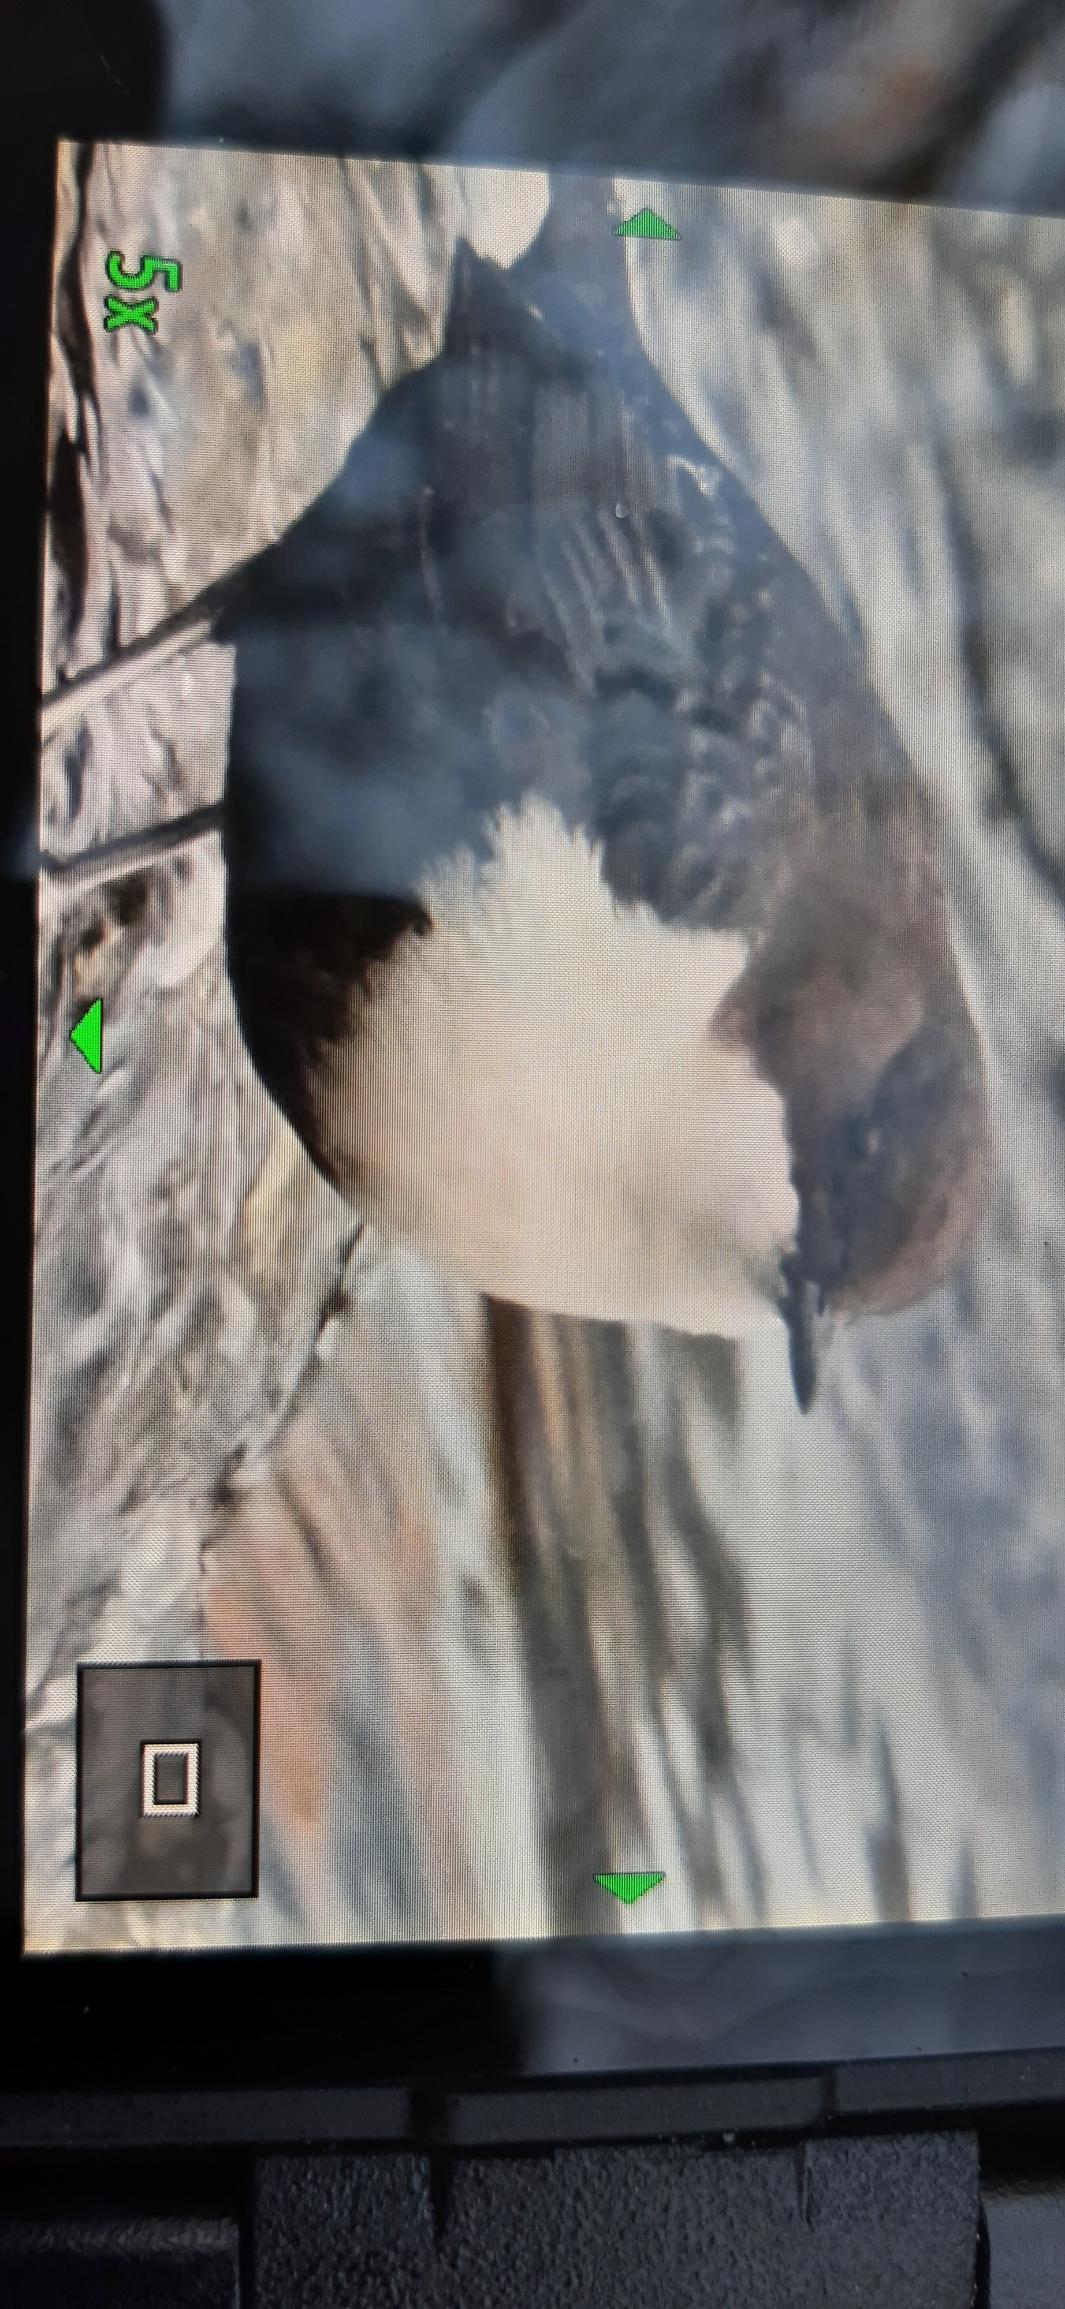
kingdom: Animalia
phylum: Chordata
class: Aves
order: Passeriformes
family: Cinclidae
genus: Cinclus
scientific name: Cinclus cinclus
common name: Vandstær
